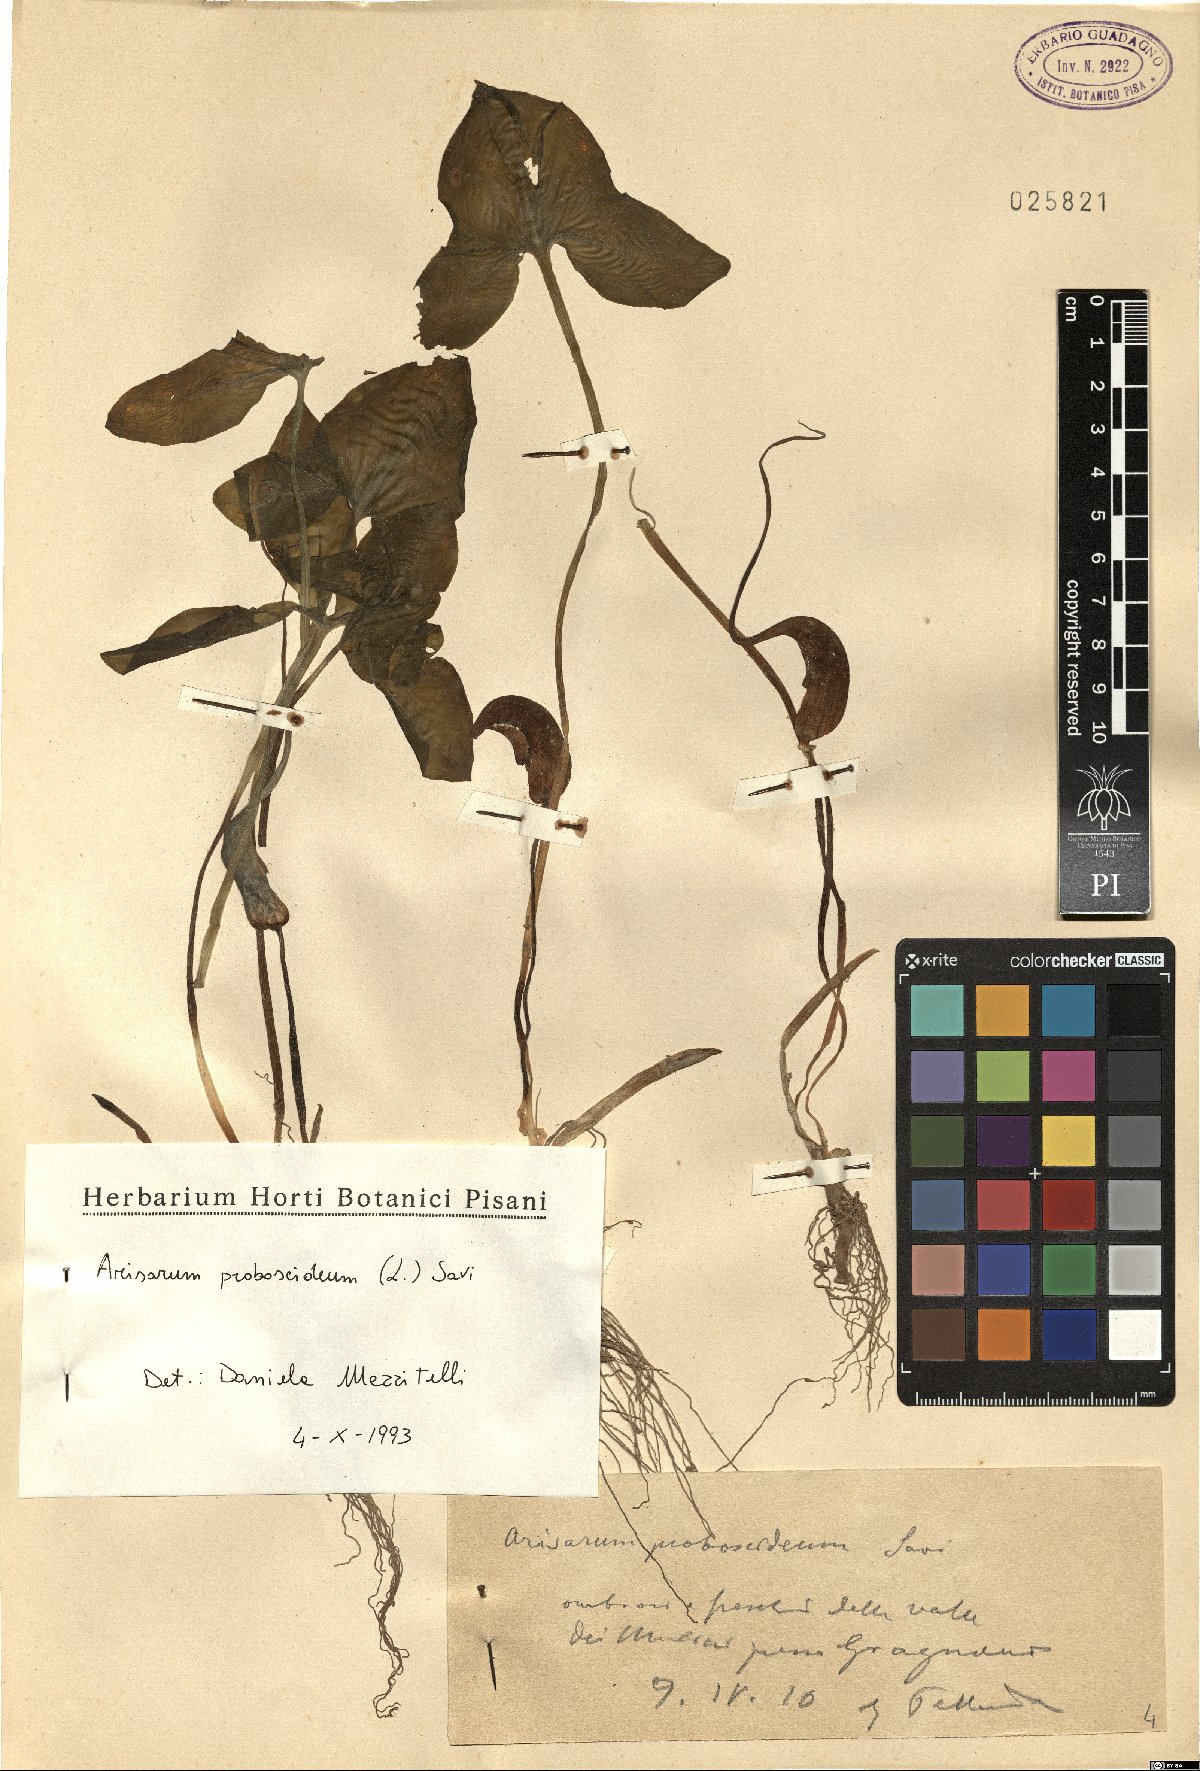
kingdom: Plantae
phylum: Tracheophyta
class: Liliopsida
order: Alismatales
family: Araceae
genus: Arisarum
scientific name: Arisarum proboscideum
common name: Mousetailplant
